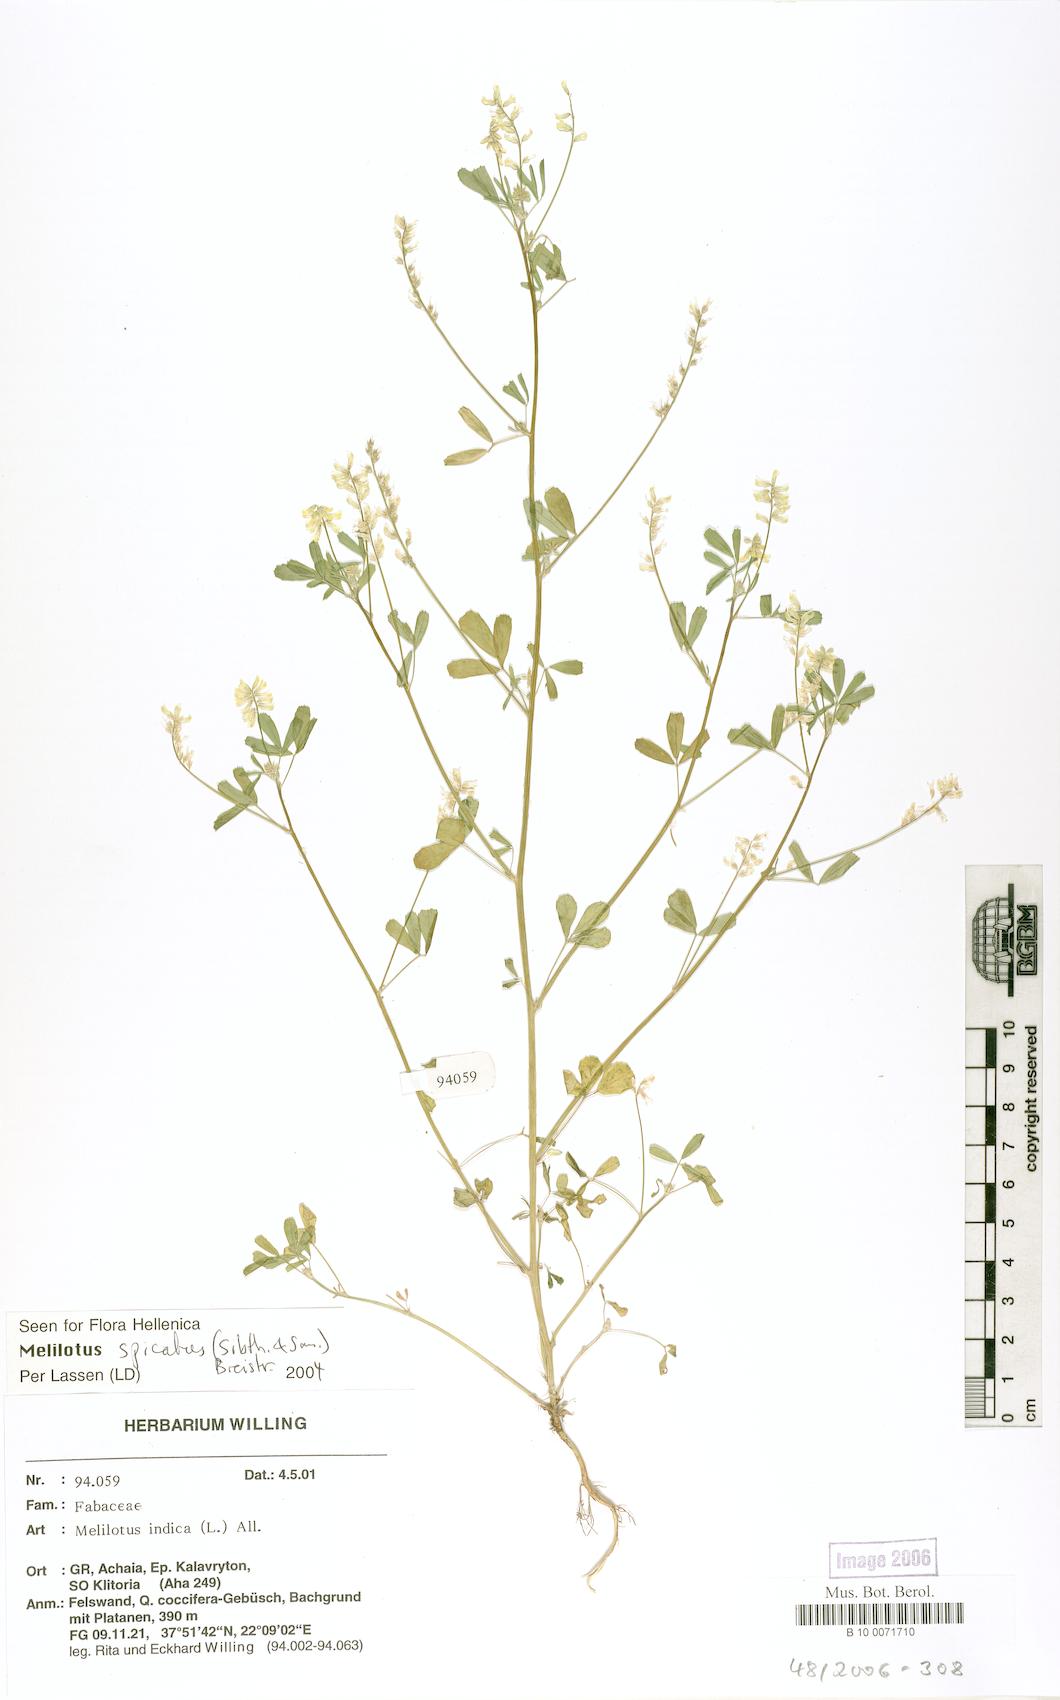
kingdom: Plantae
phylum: Tracheophyta
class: Magnoliopsida
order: Fabales
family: Fabaceae
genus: Melilotus
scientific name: Melilotus indicus
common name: Small melilot
